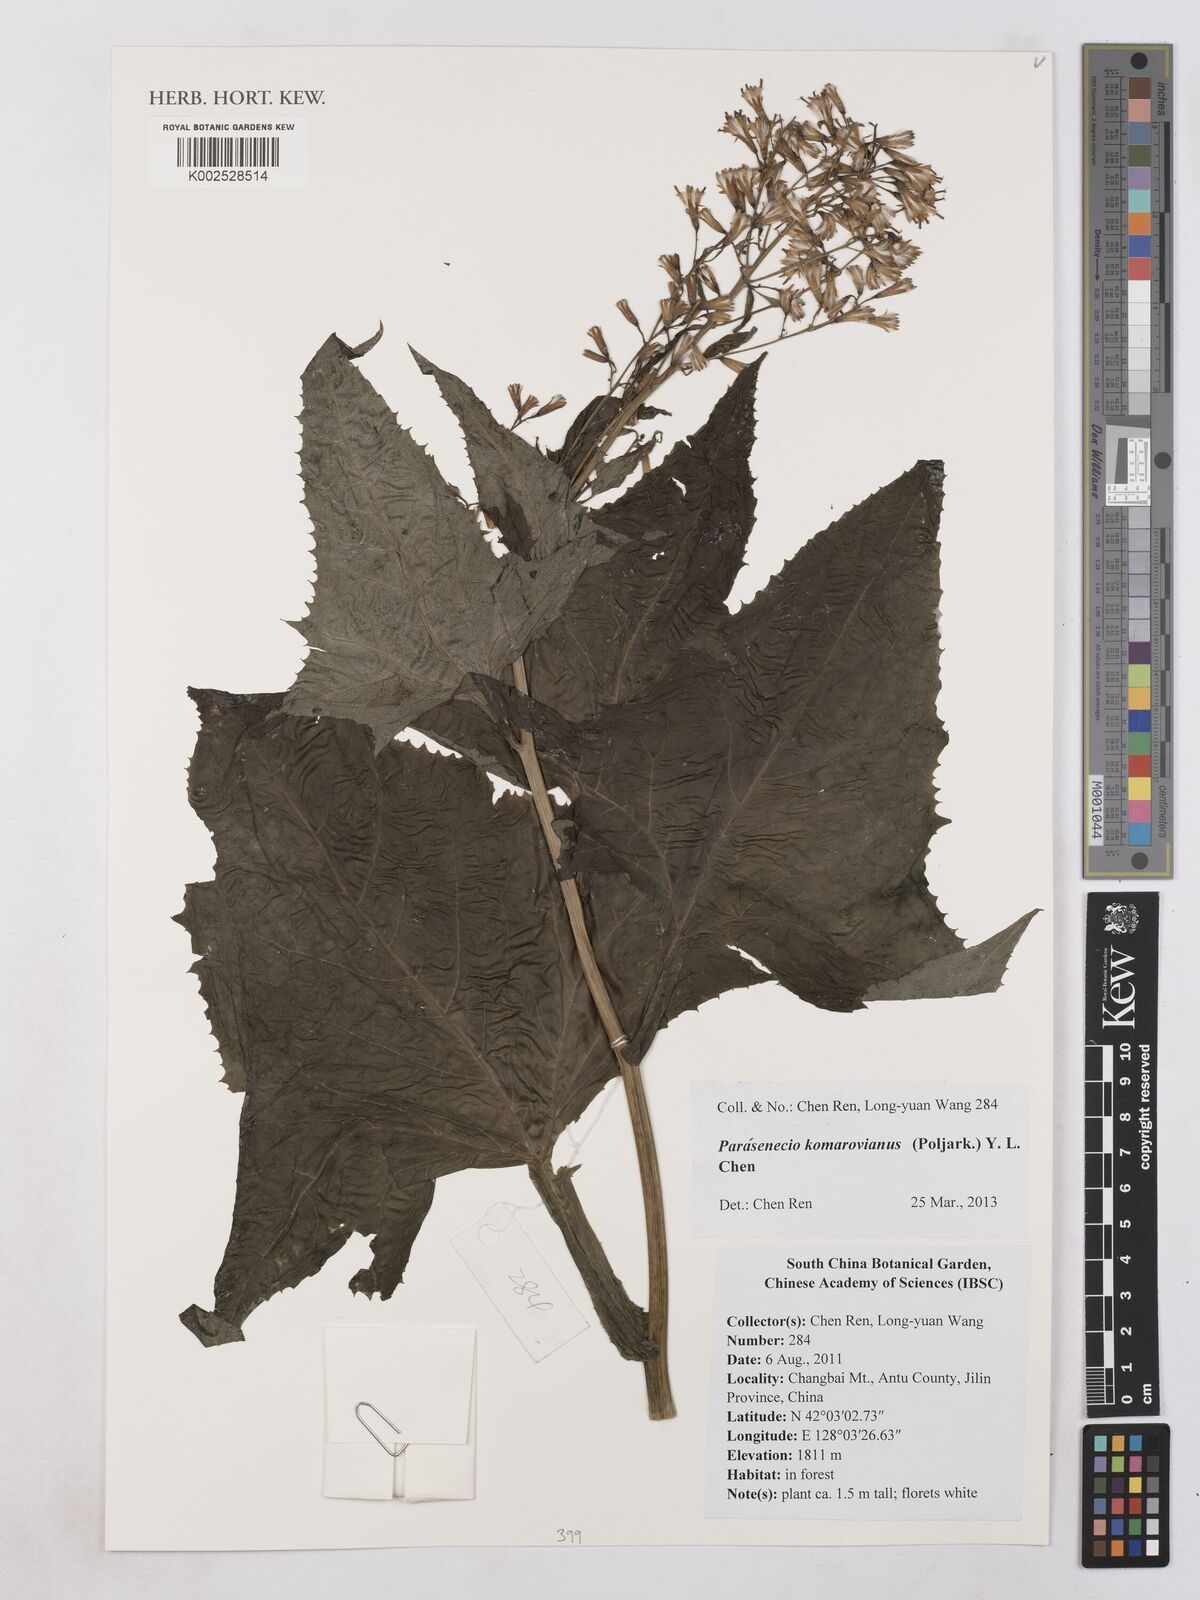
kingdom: Plantae
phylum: Tracheophyta
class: Magnoliopsida
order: Asterales
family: Asteraceae
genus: Parasenecio
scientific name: Parasenecio komarovianus
